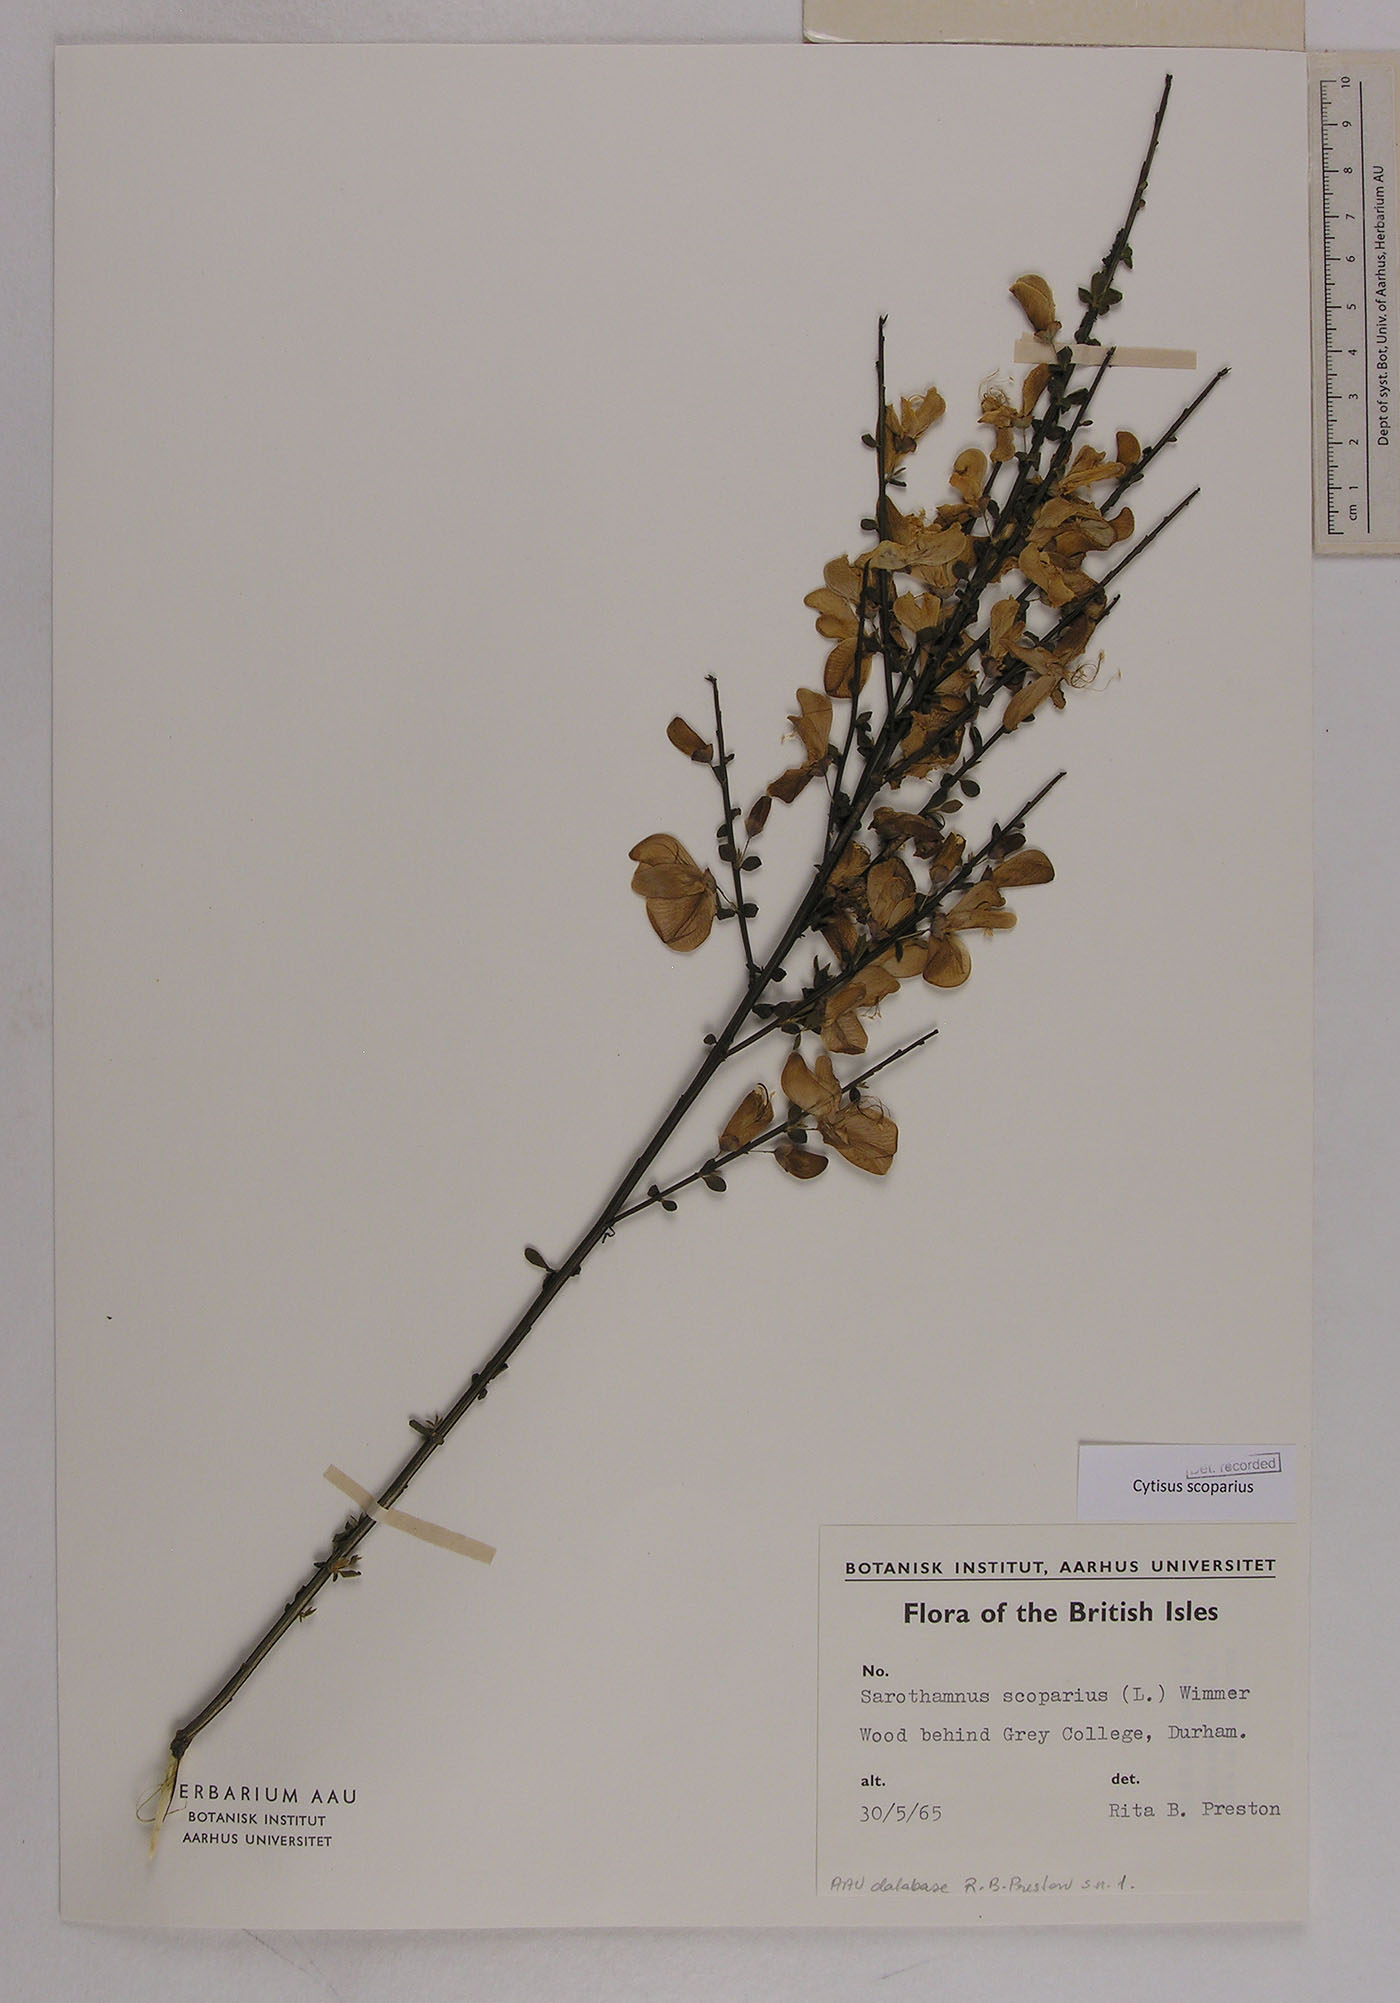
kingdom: Plantae
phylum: Tracheophyta
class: Magnoliopsida
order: Fabales
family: Fabaceae
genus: Cytisus
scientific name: Cytisus scoparius
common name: Scotch broom
